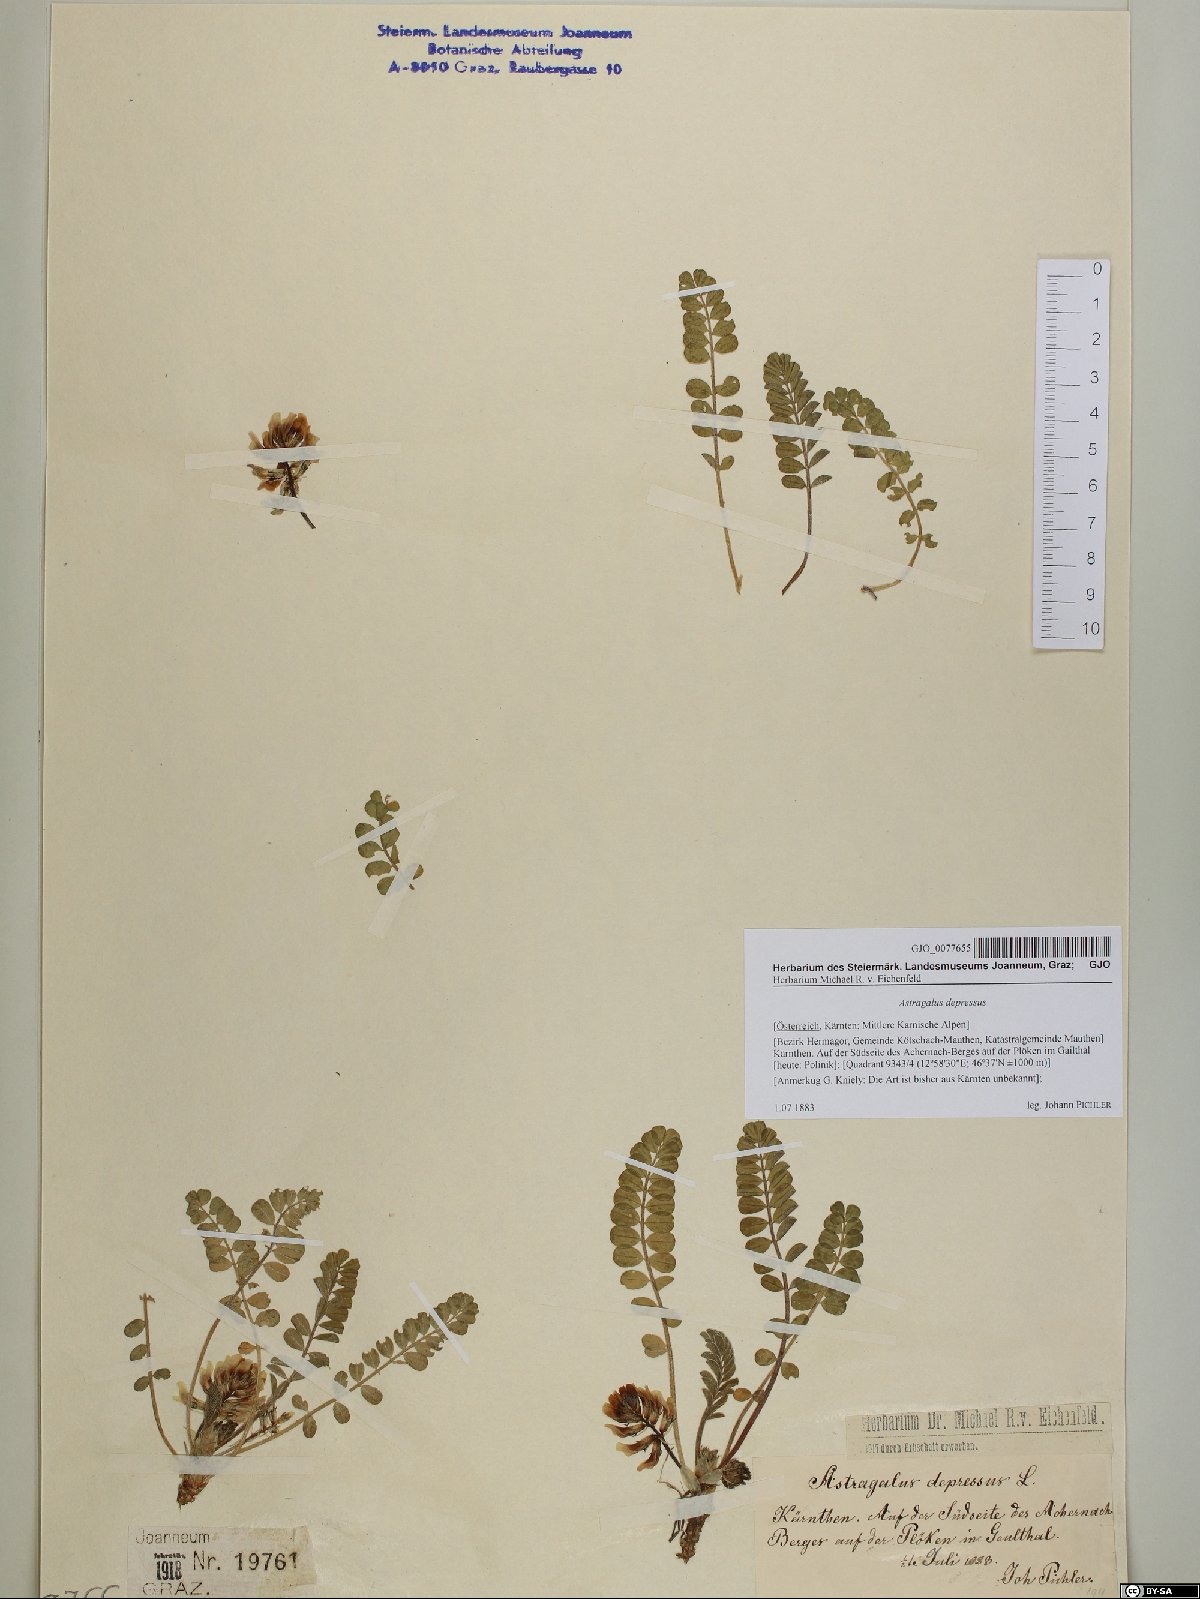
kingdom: Plantae
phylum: Tracheophyta
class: Magnoliopsida
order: Fabales
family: Fabaceae
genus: Astragalus
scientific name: Astragalus depressus
